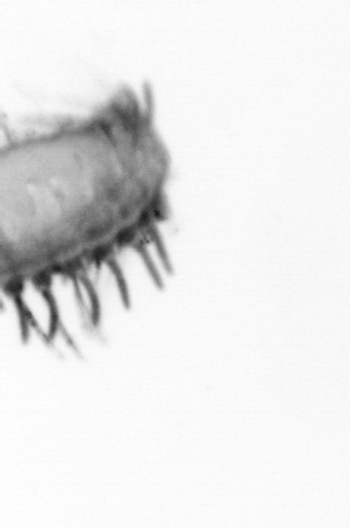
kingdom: Animalia
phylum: Annelida
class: Polychaeta
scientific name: Polychaeta
